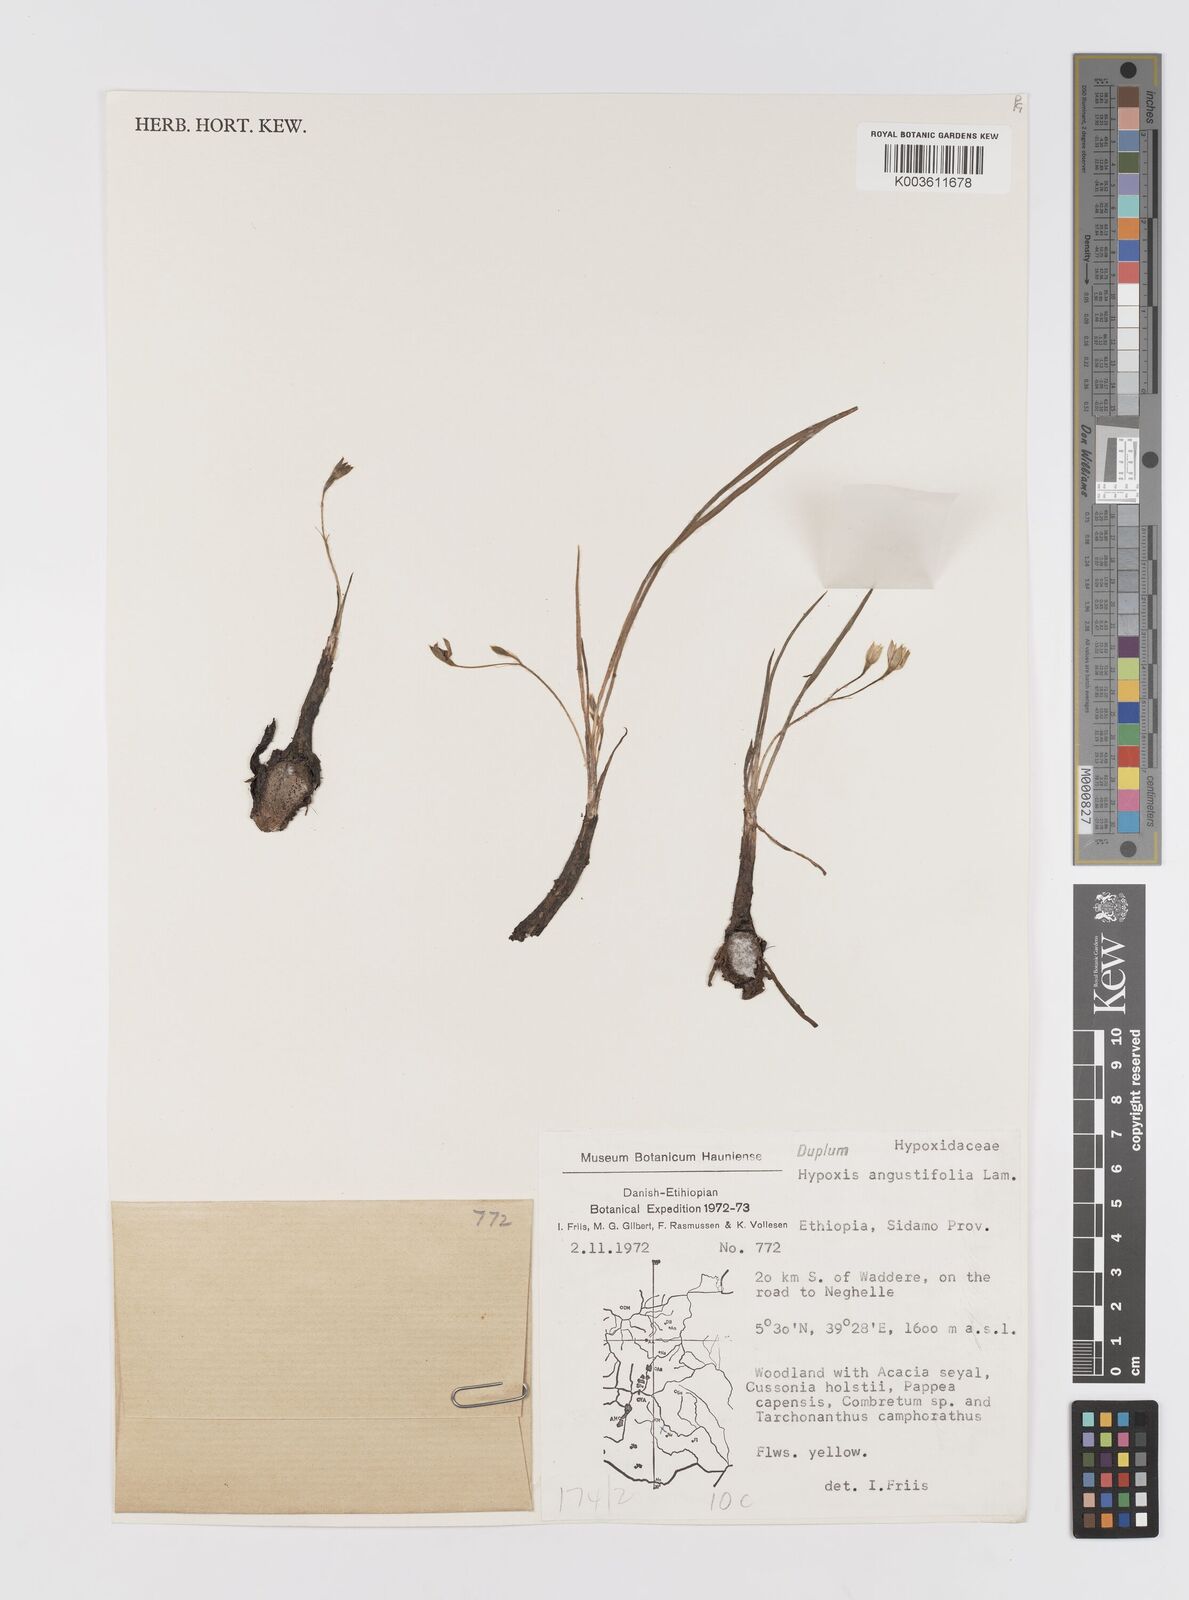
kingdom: Plantae
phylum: Tracheophyta
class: Liliopsida
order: Asparagales
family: Hypoxidaceae
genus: Hypoxis
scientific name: Hypoxis angustifolia
